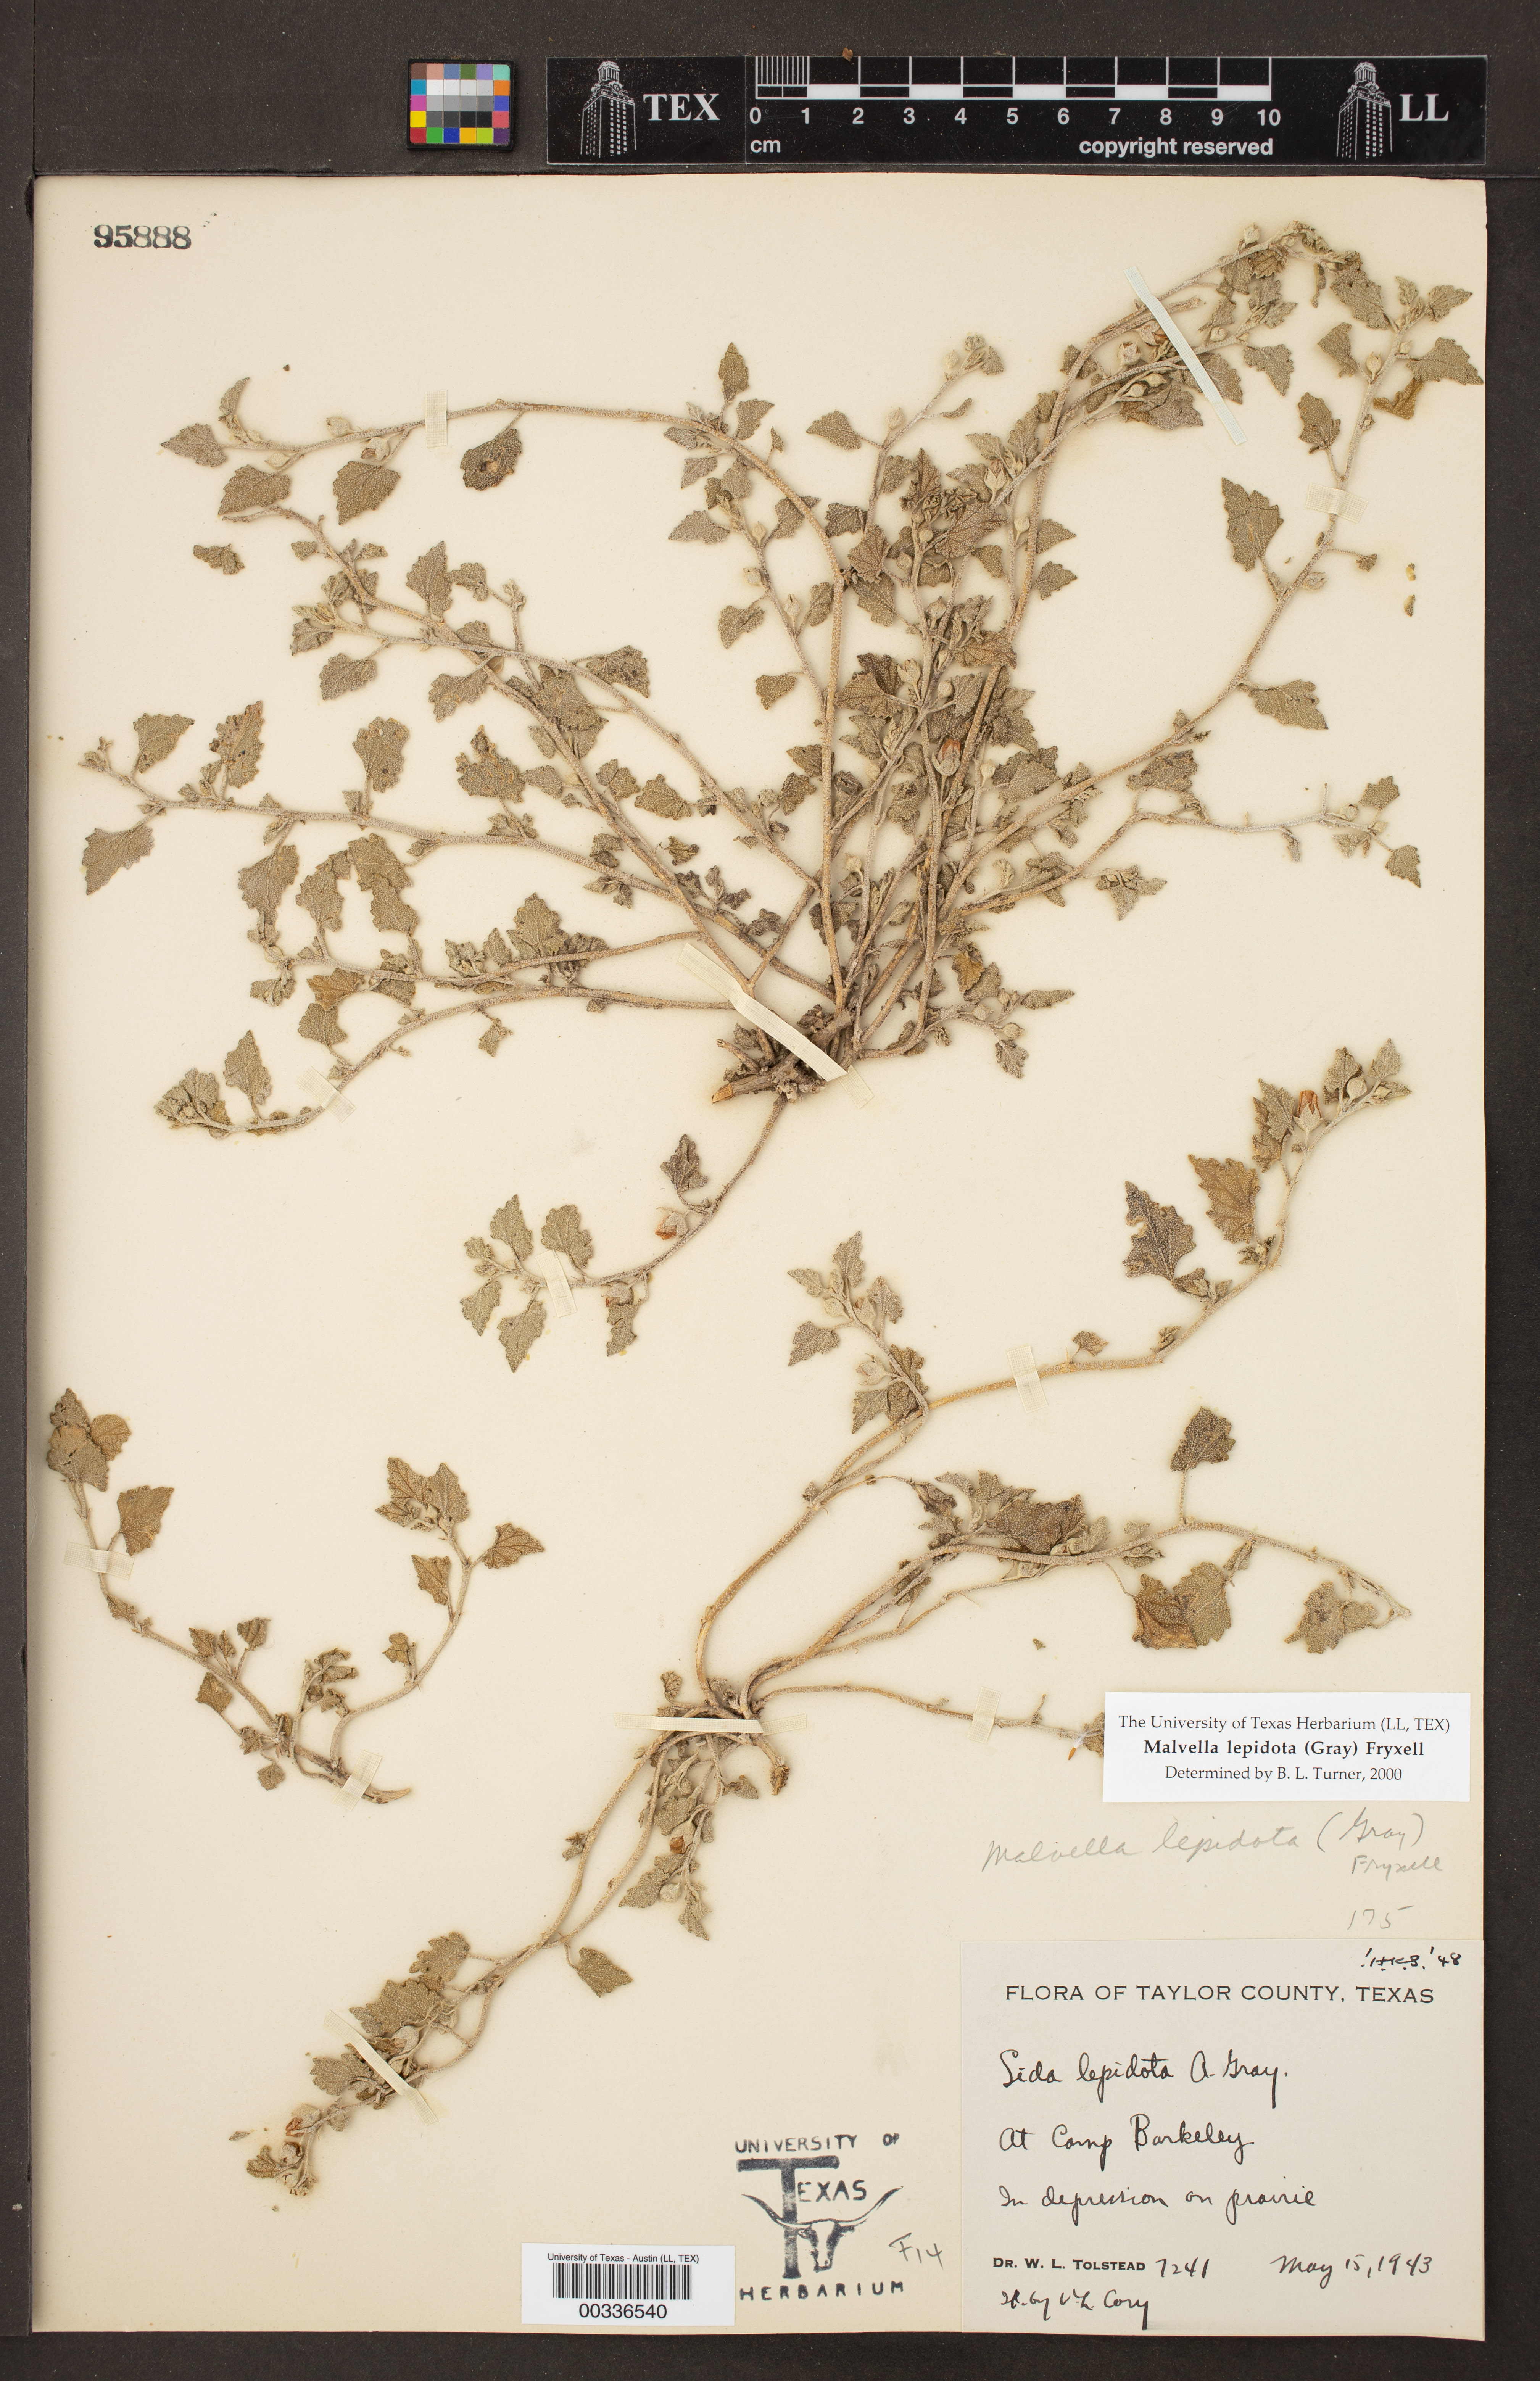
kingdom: Plantae
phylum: Tracheophyta
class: Magnoliopsida
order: Malvales
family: Malvaceae
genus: Malvella
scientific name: Malvella lepidota
